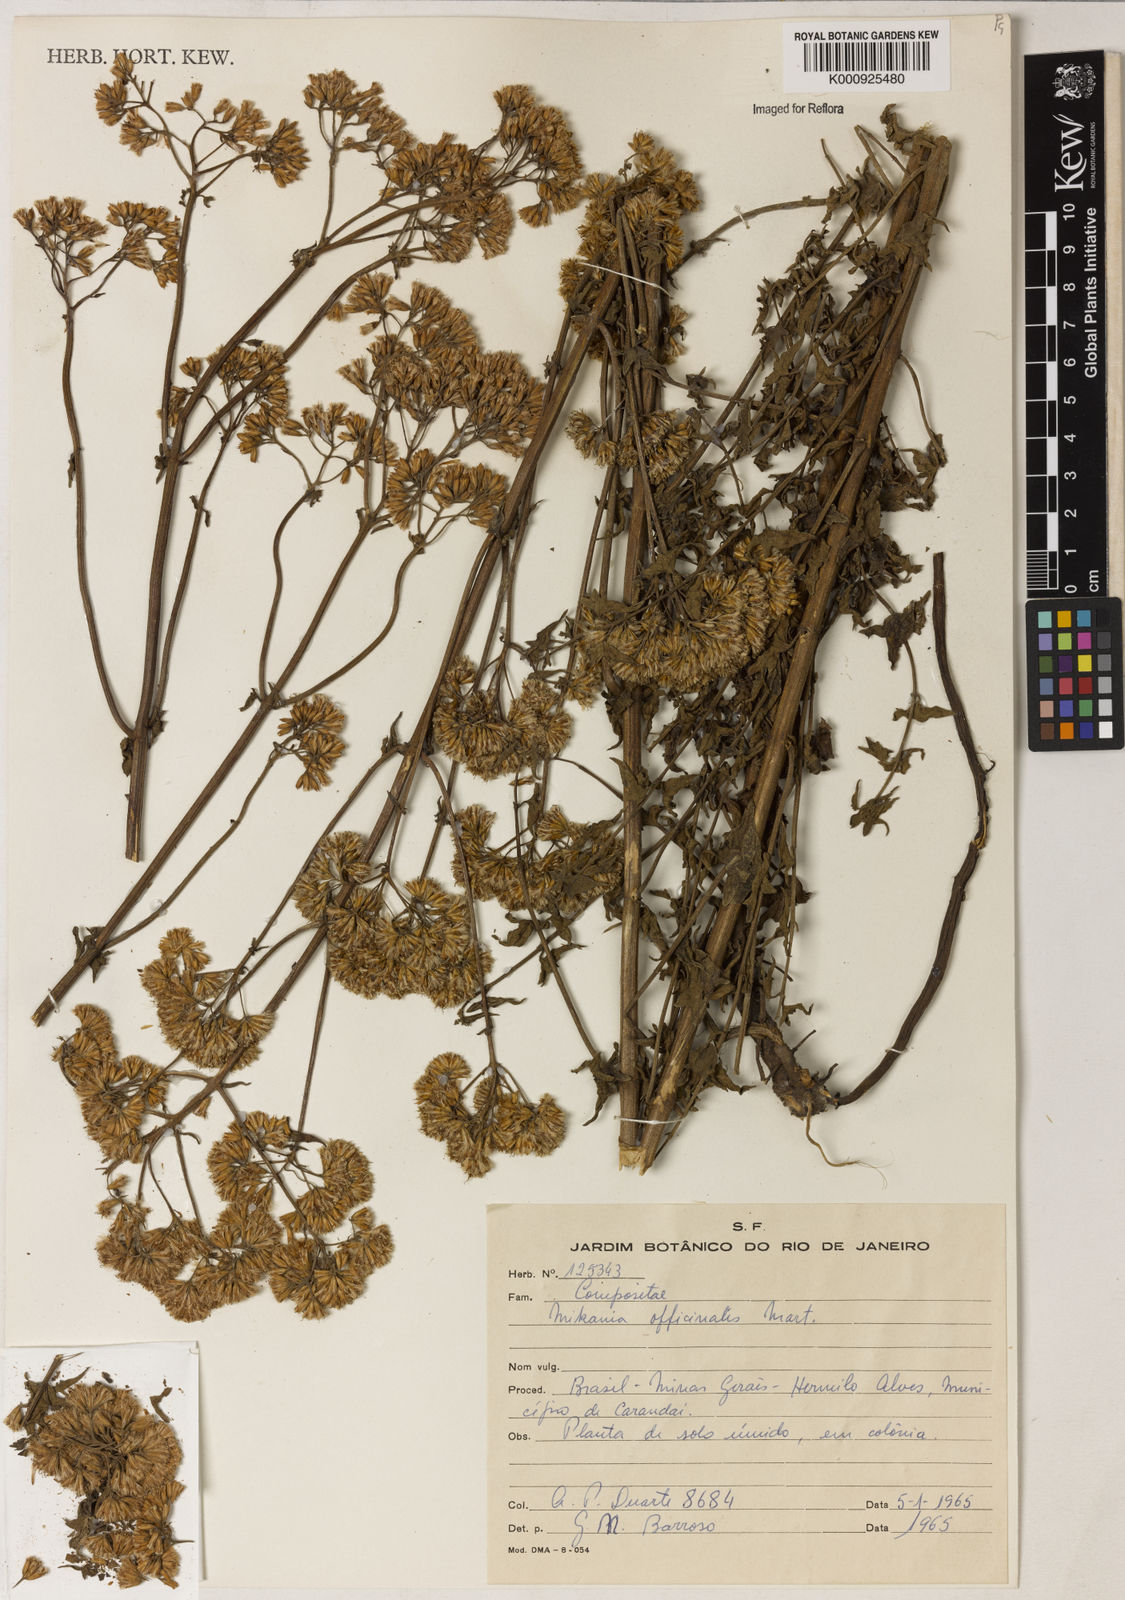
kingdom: Plantae
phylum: Tracheophyta
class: Magnoliopsida
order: Asterales
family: Asteraceae
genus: Mikania
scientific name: Mikania officinalis
